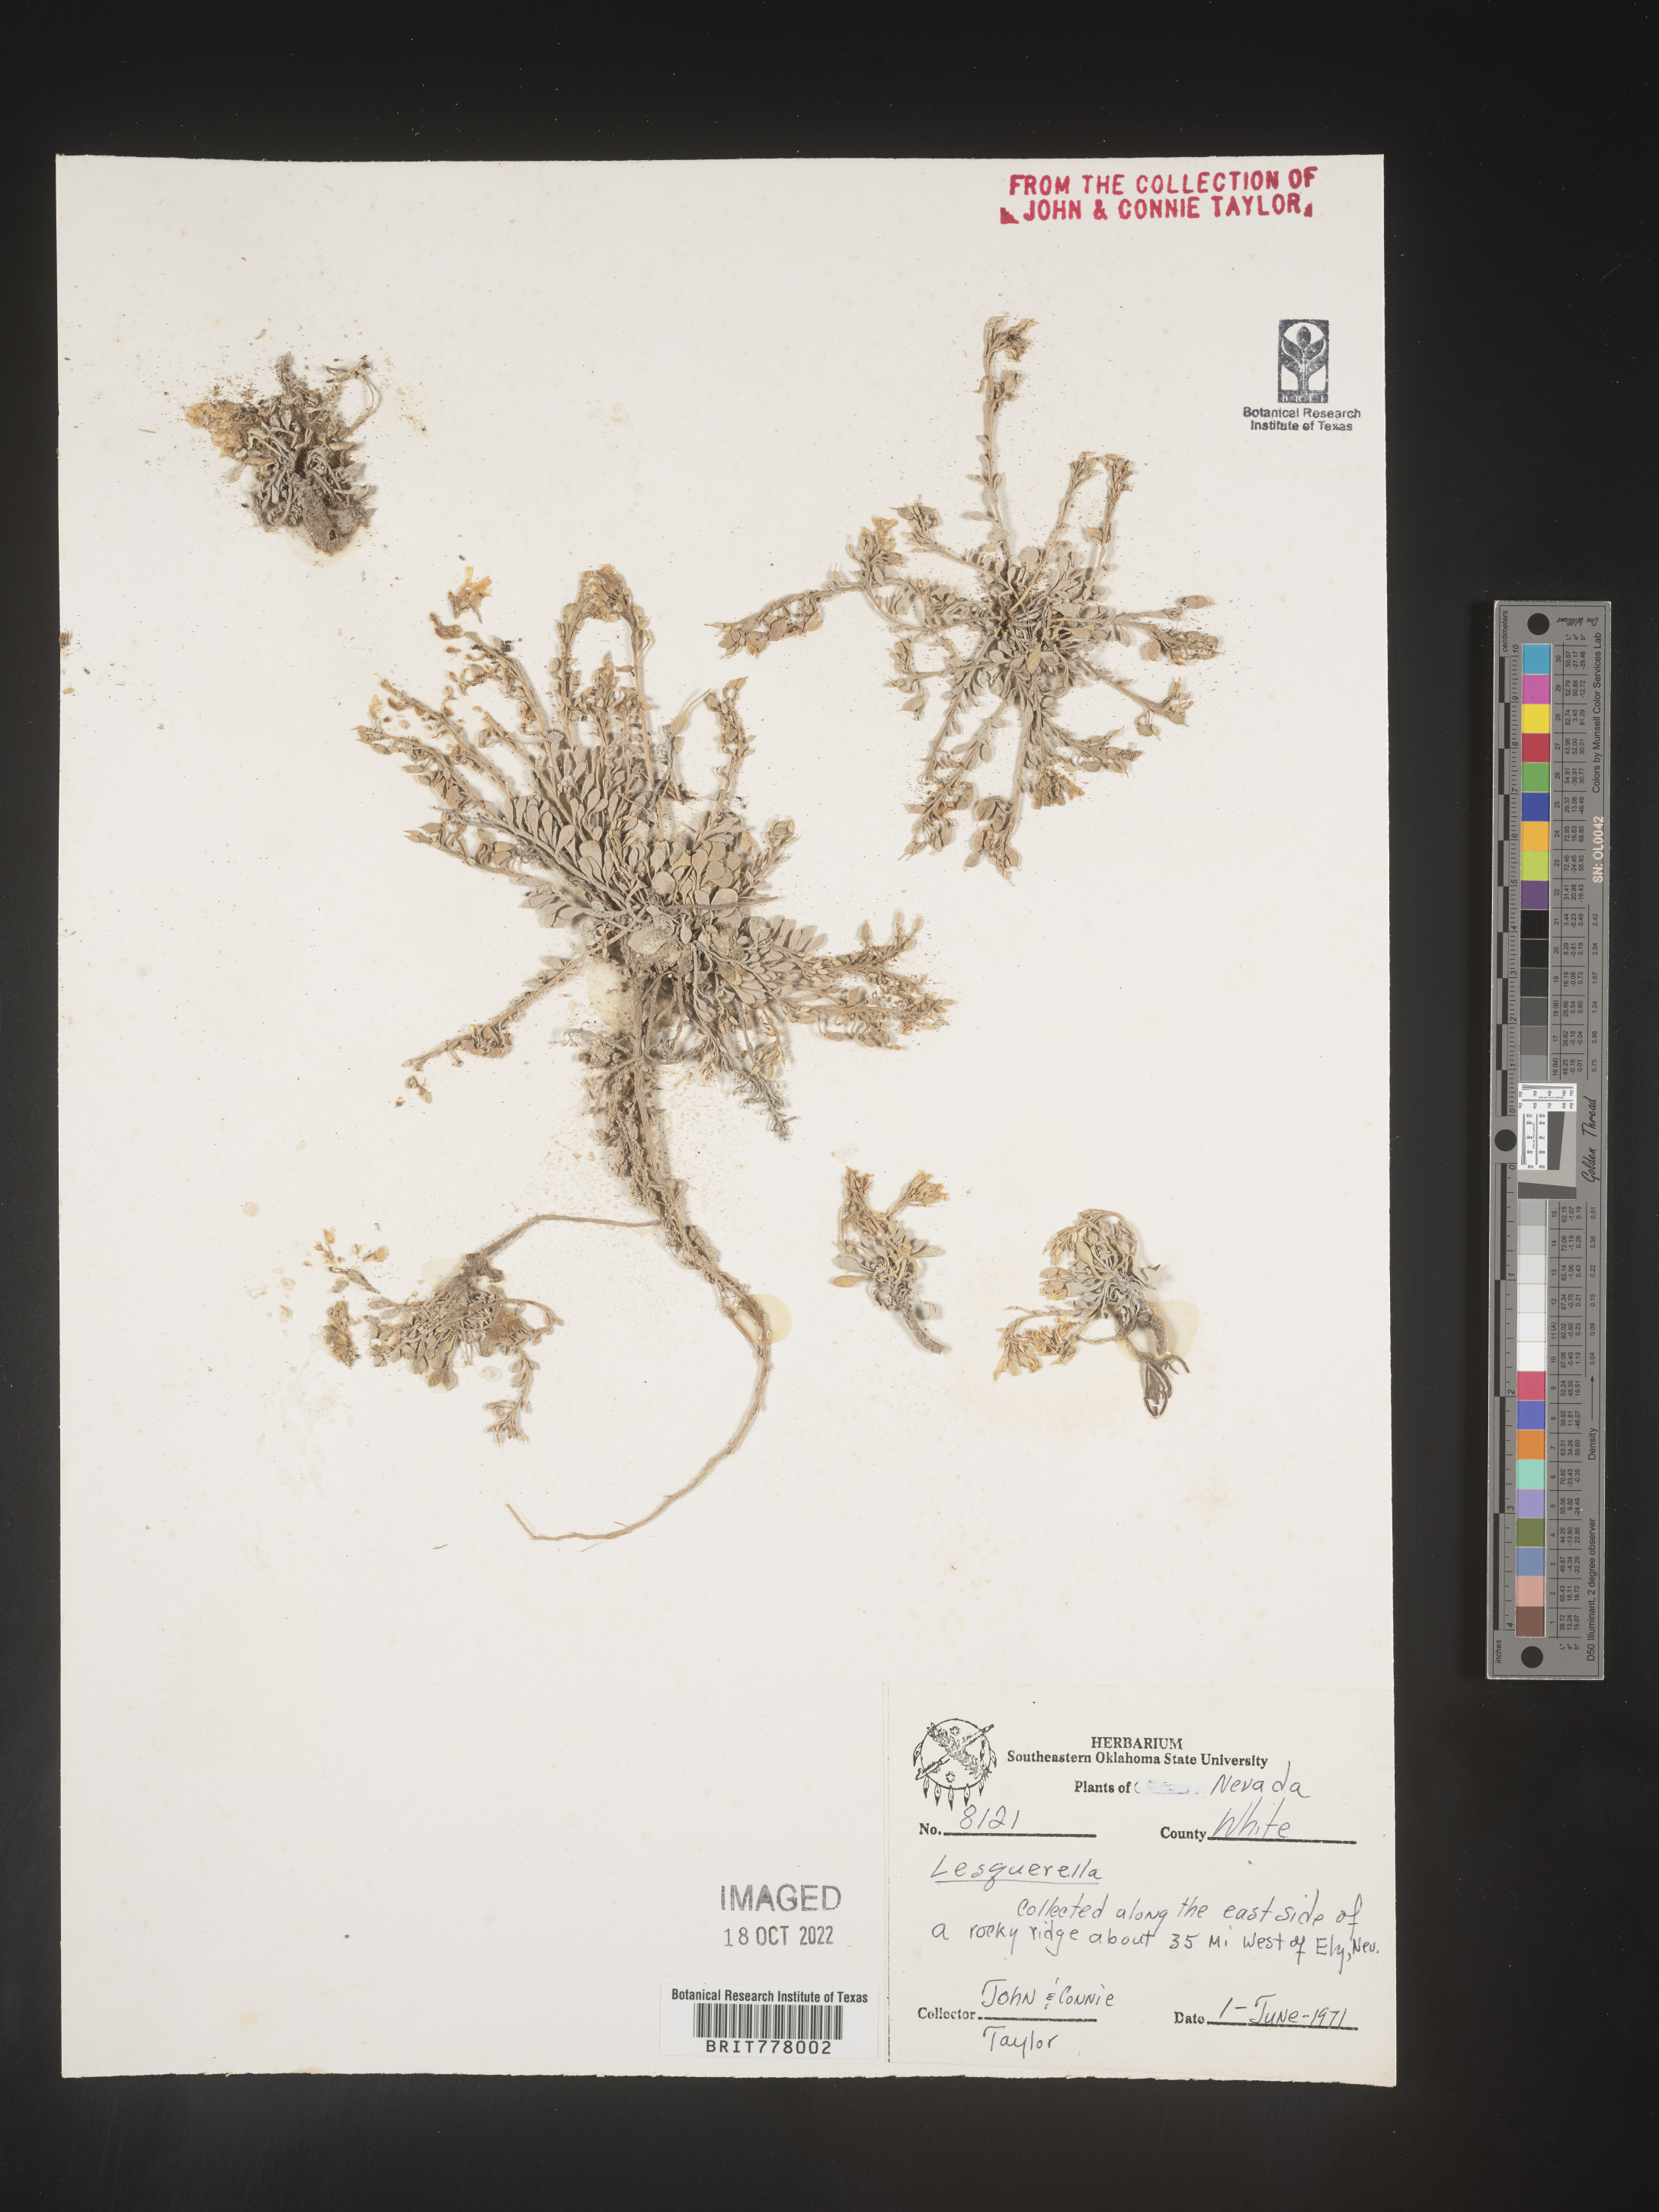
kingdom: Chromista
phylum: Cercozoa
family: Psammonobiotidae
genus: Lesquerella
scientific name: Lesquerella
